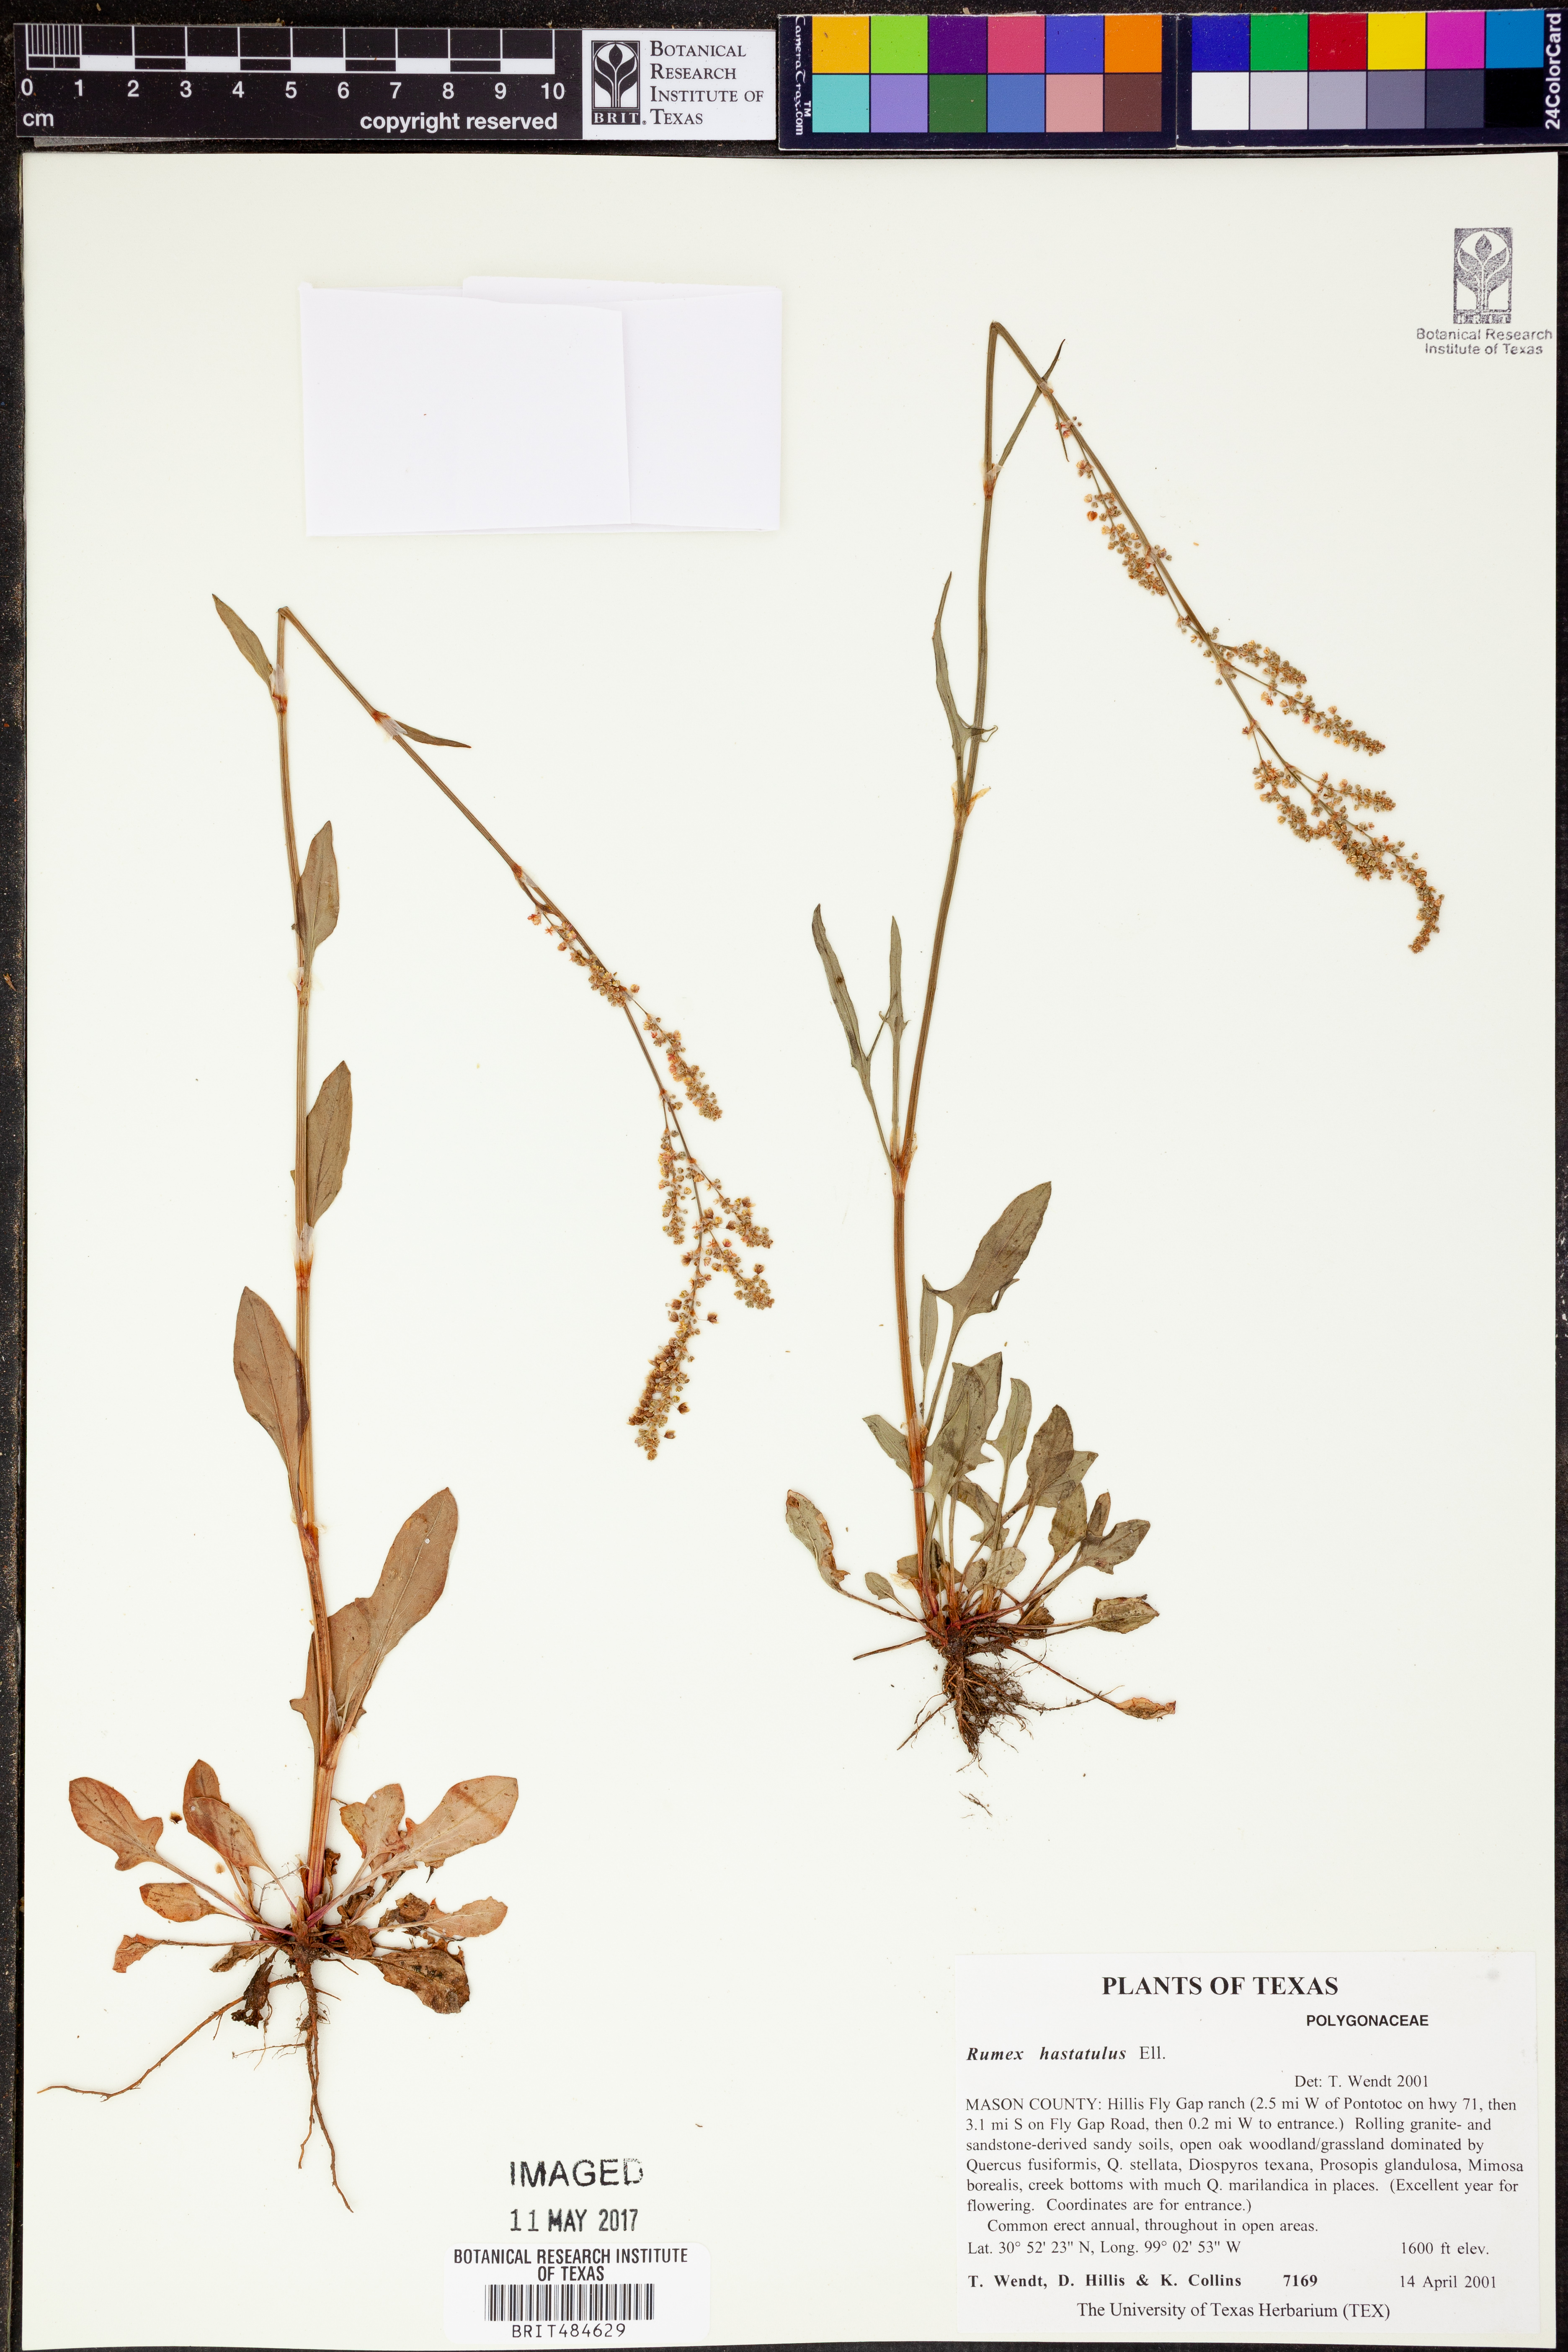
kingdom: Plantae
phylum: Tracheophyta
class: Magnoliopsida
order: Caryophyllales
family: Polygonaceae
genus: Rumex
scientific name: Rumex hastatulus
